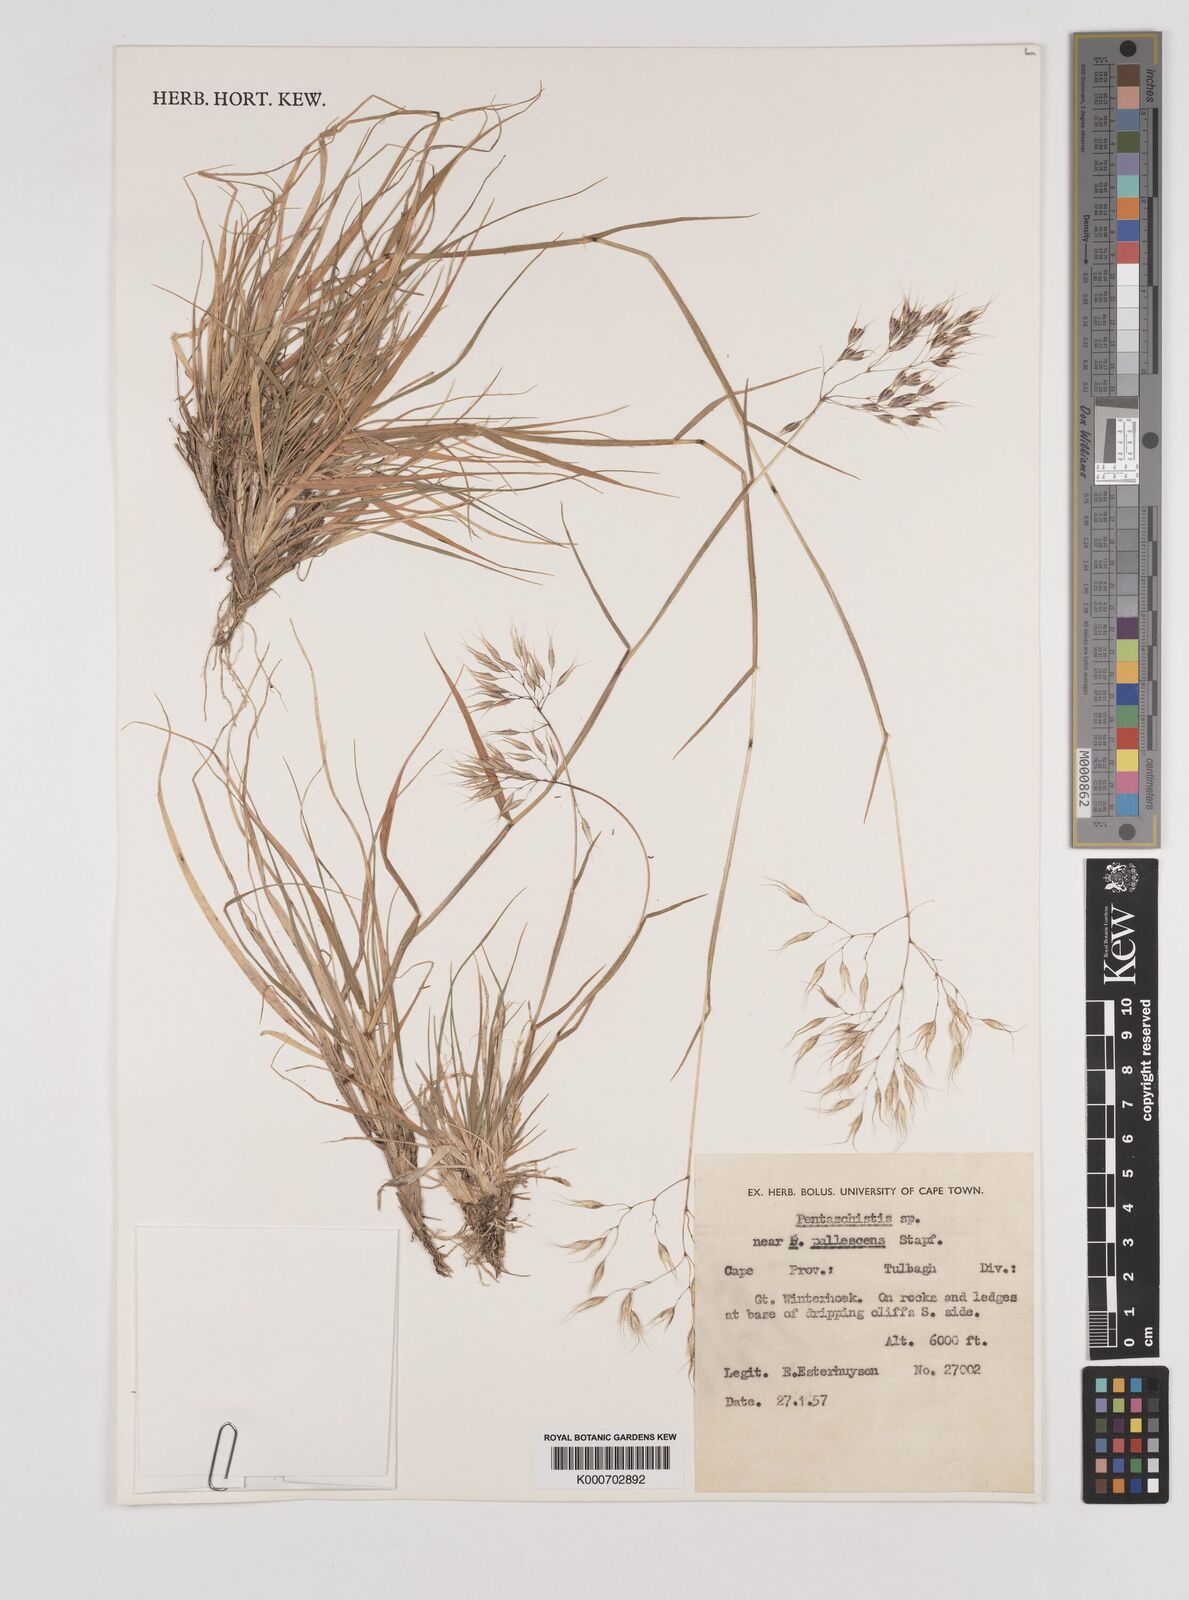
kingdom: Plantae
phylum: Tracheophyta
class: Liliopsida
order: Poales
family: Poaceae
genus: Pentameris
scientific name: Pentameris barbata
